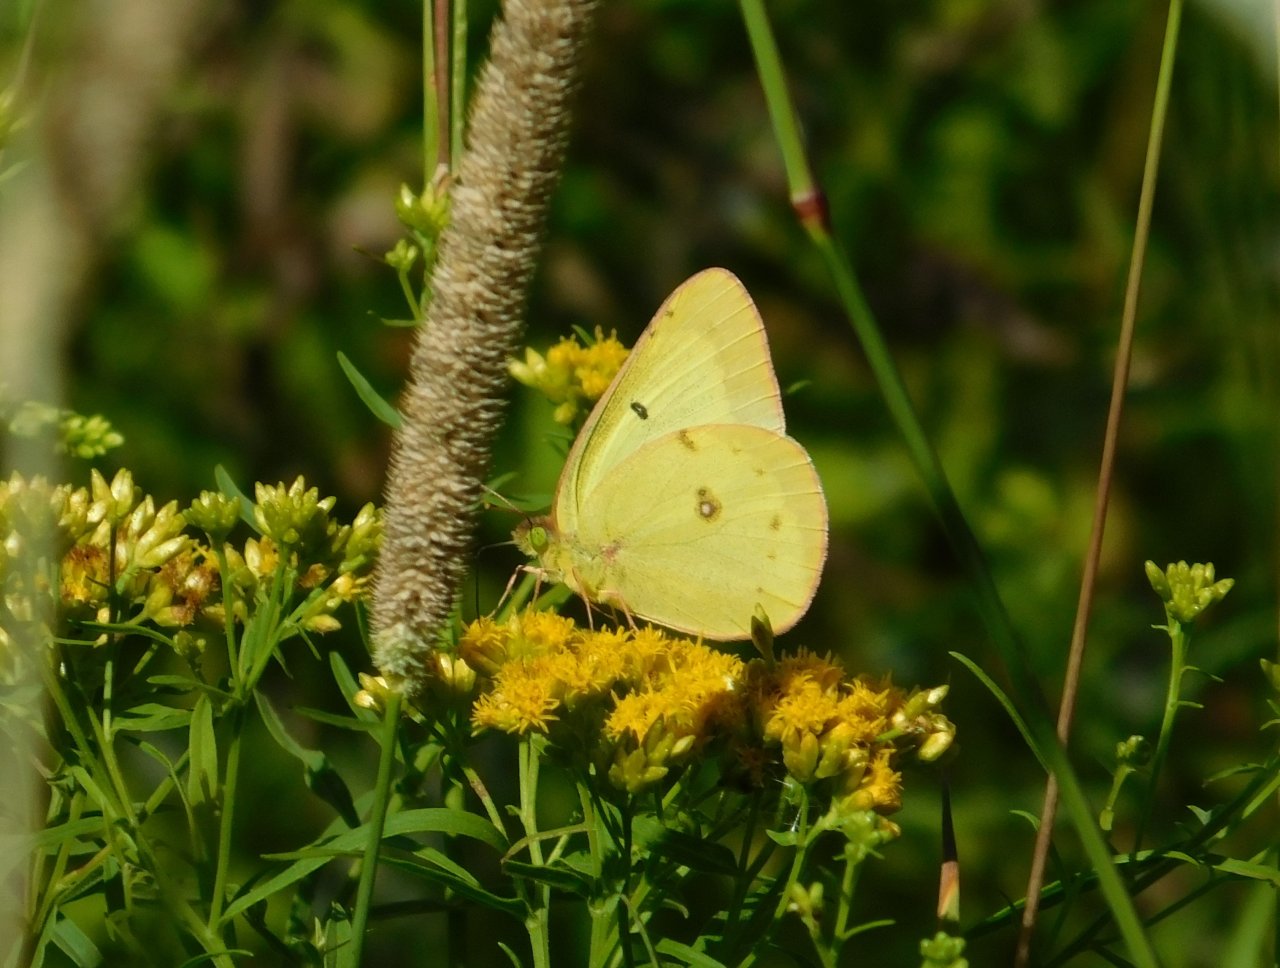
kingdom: Animalia
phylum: Arthropoda
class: Insecta
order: Lepidoptera
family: Pieridae
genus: Colias
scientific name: Colias philodice
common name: Clouded Sulphur
